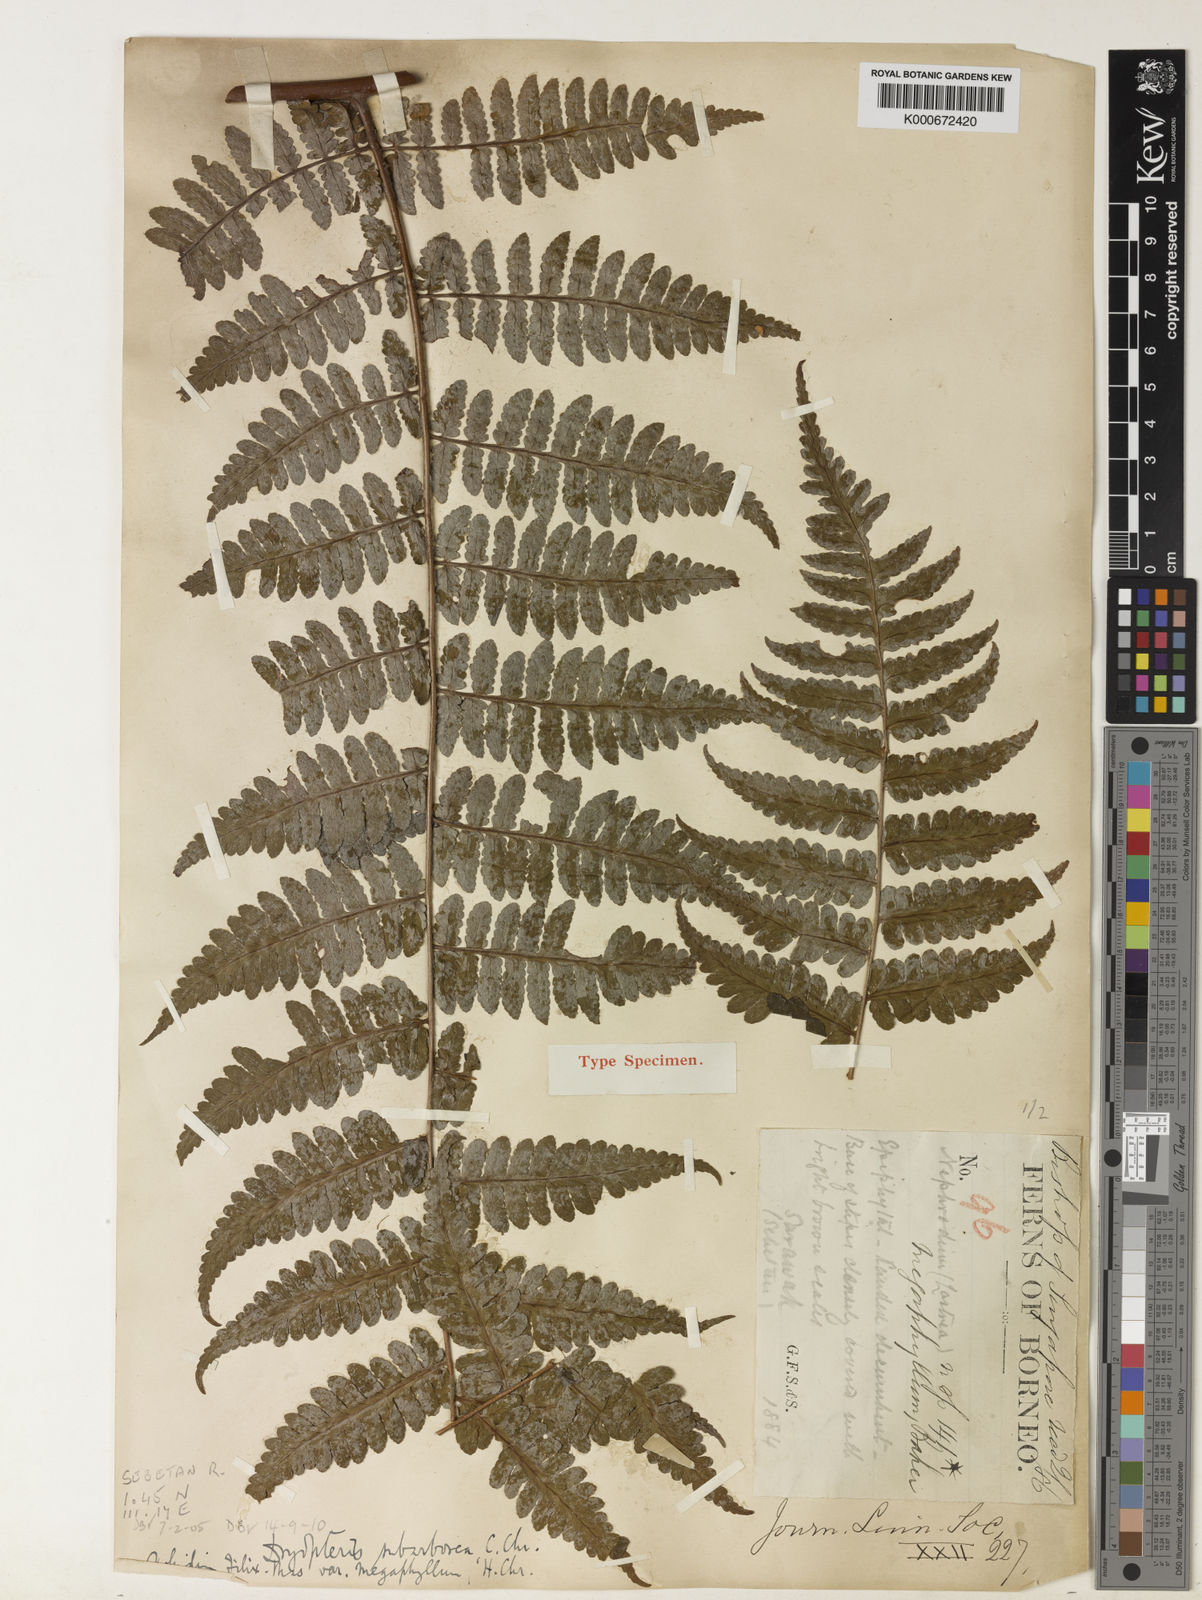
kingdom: Plantae
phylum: Tracheophyta
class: Polypodiopsida
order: Polypodiales
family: Dryopteridaceae
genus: Dryopteris
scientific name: Dryopteris subarborea
